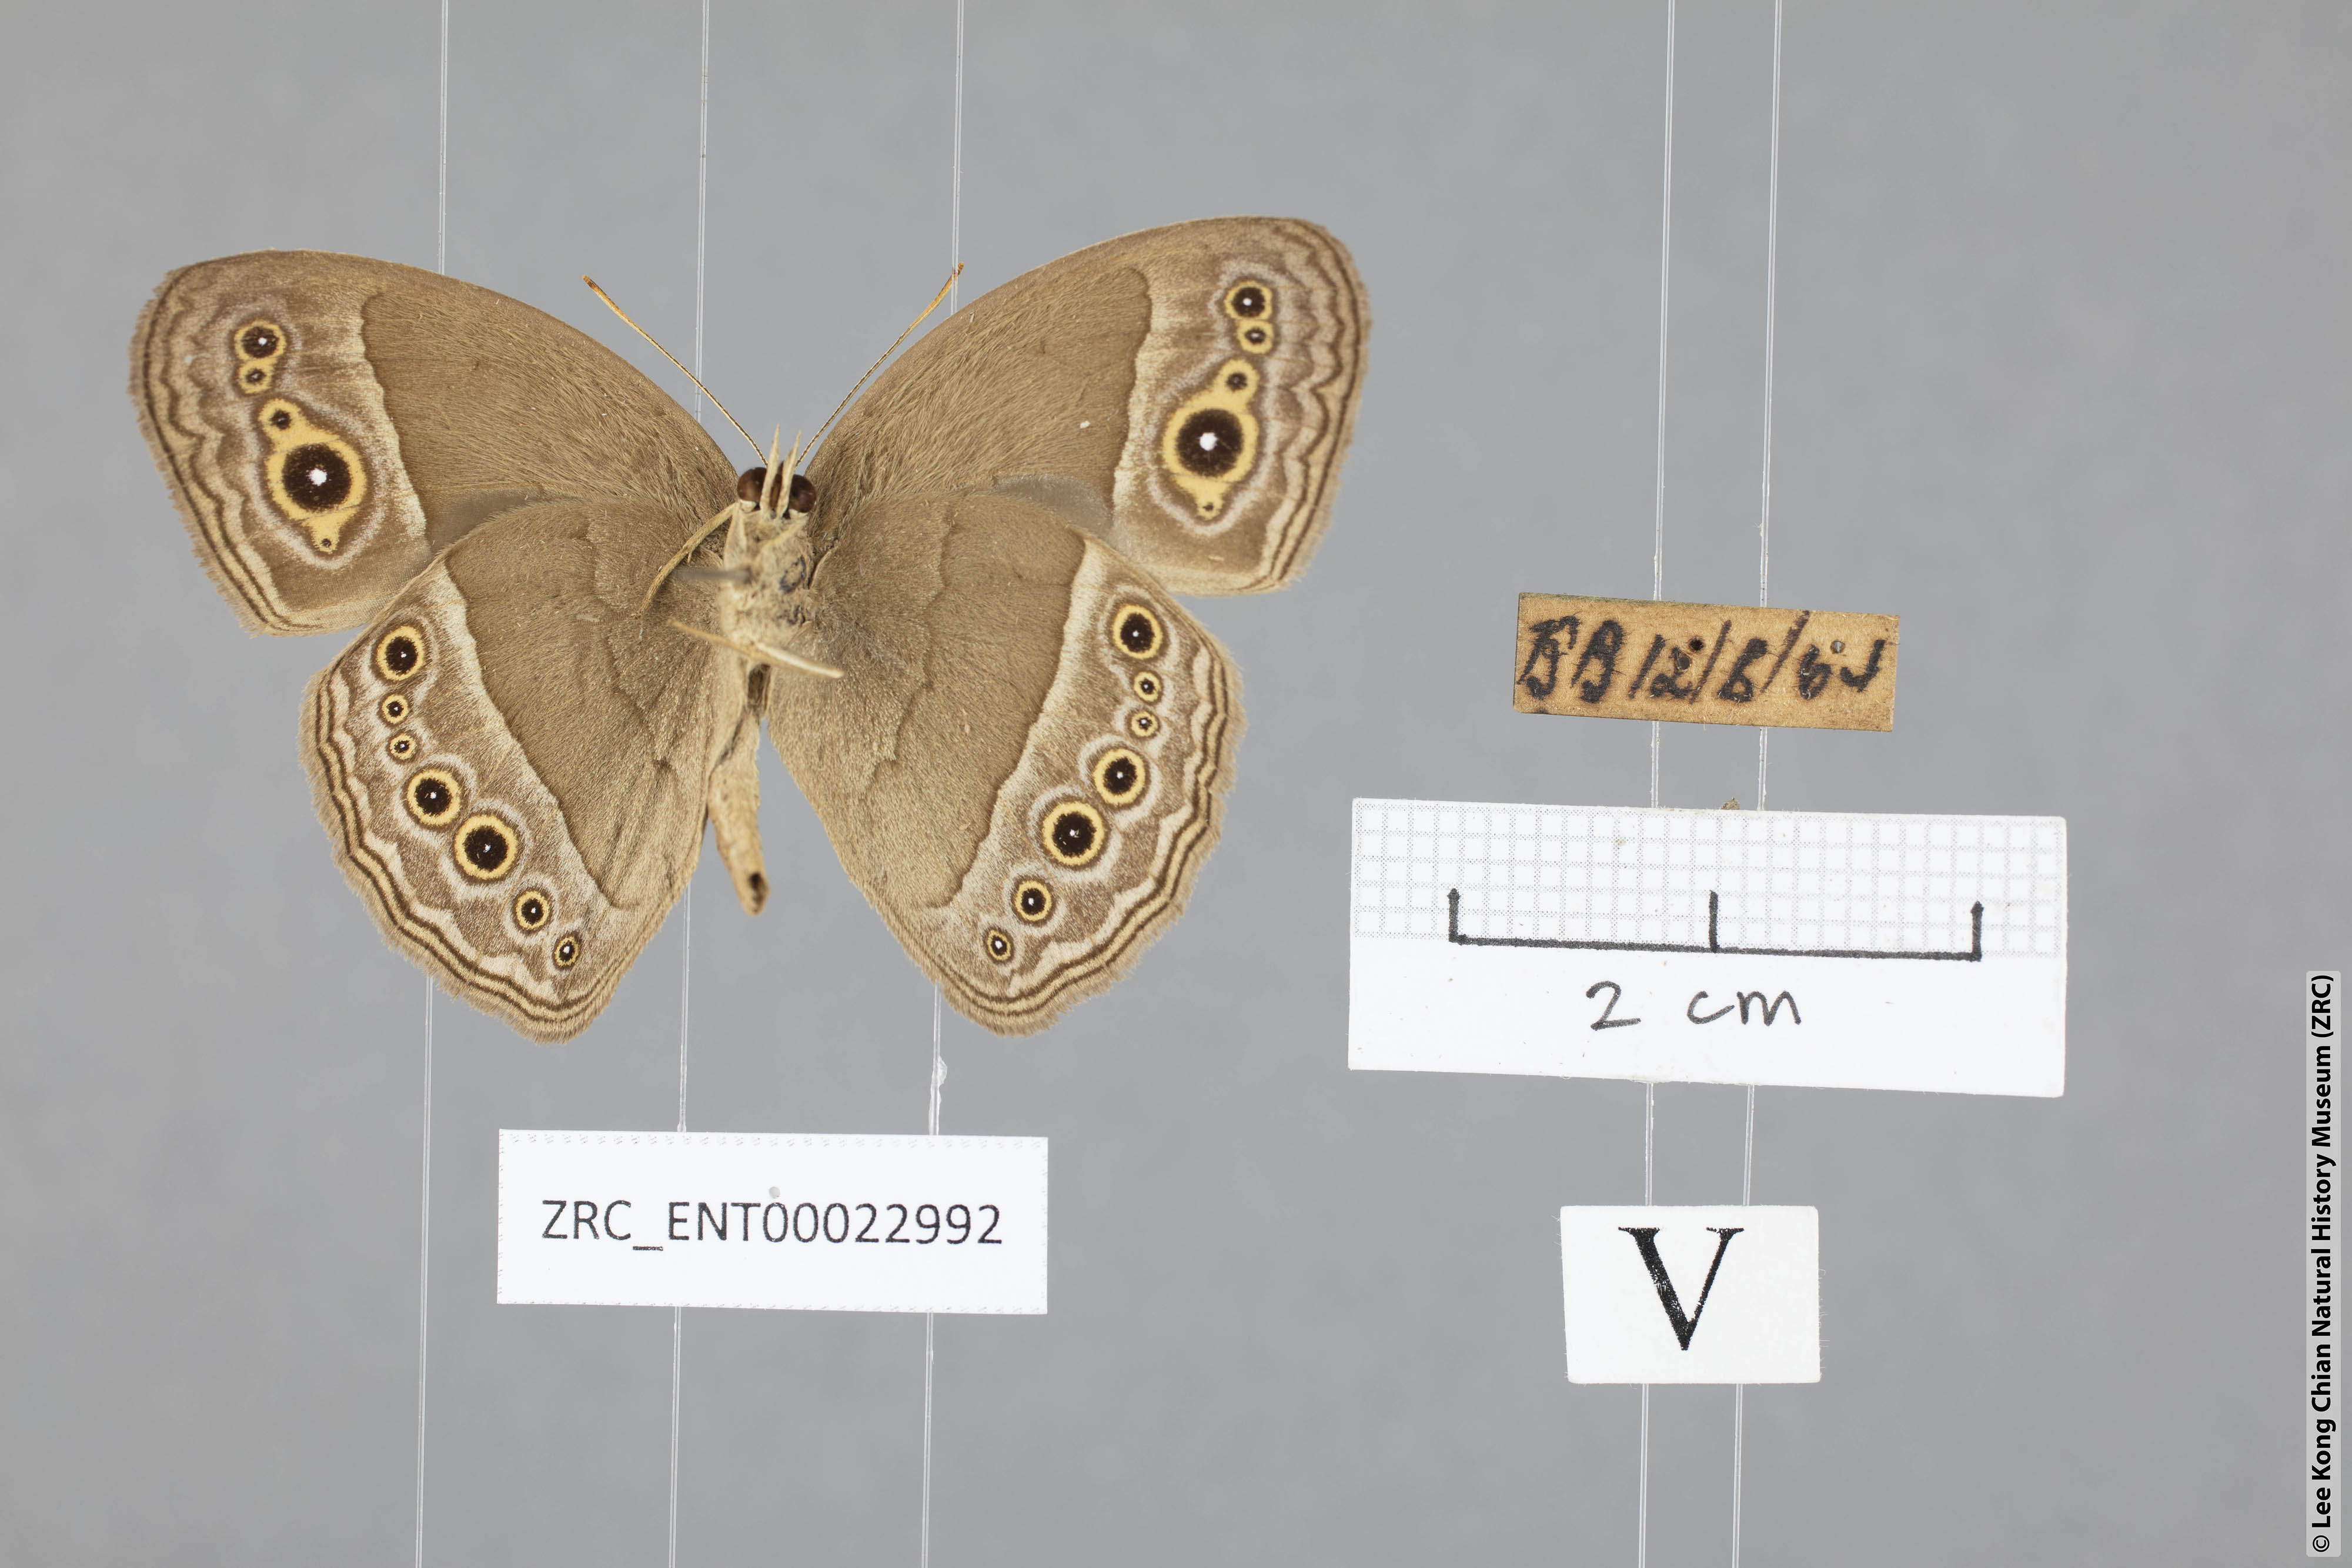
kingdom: Animalia
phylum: Arthropoda
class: Insecta
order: Lepidoptera
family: Nymphalidae
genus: Mycalesis
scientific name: Mycalesis perseoides
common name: Burmese bushbrown
